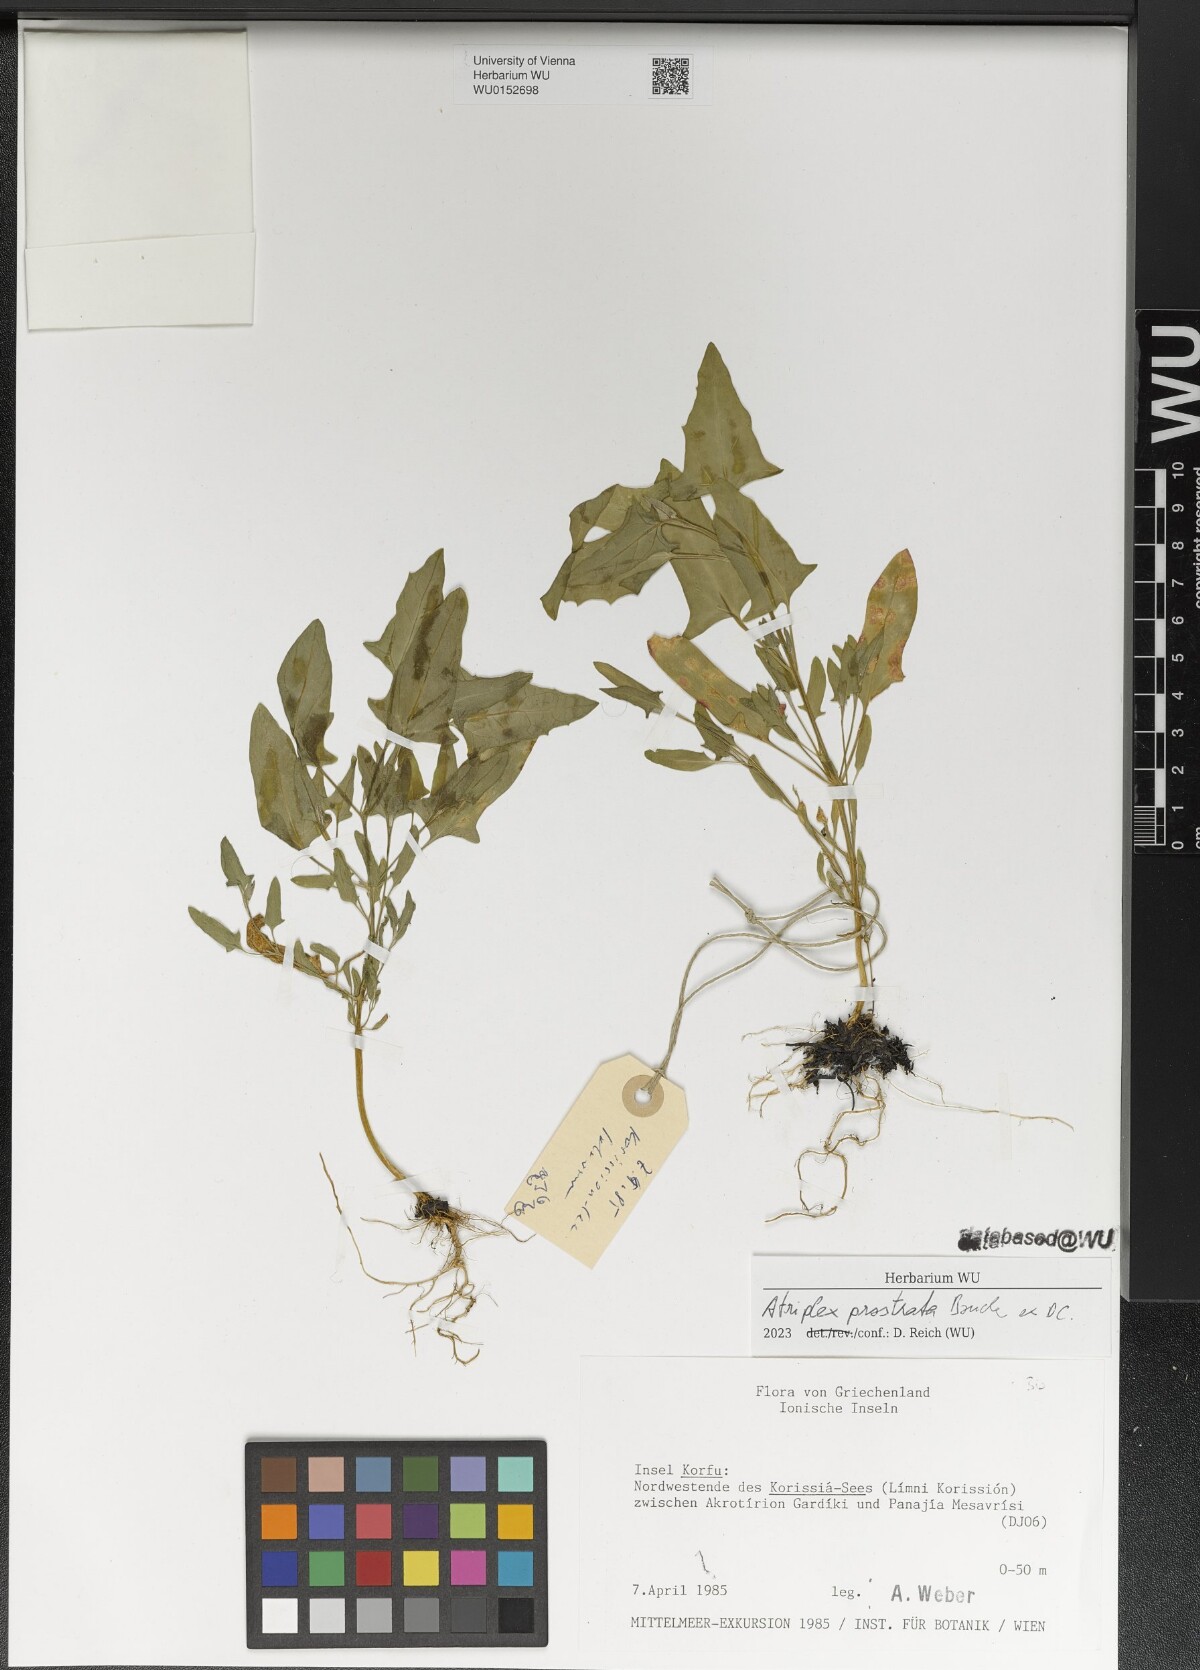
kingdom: Plantae
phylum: Tracheophyta
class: Magnoliopsida
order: Caryophyllales
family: Amaranthaceae
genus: Atriplex
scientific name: Atriplex prostrata
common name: Spear-leaved orache
